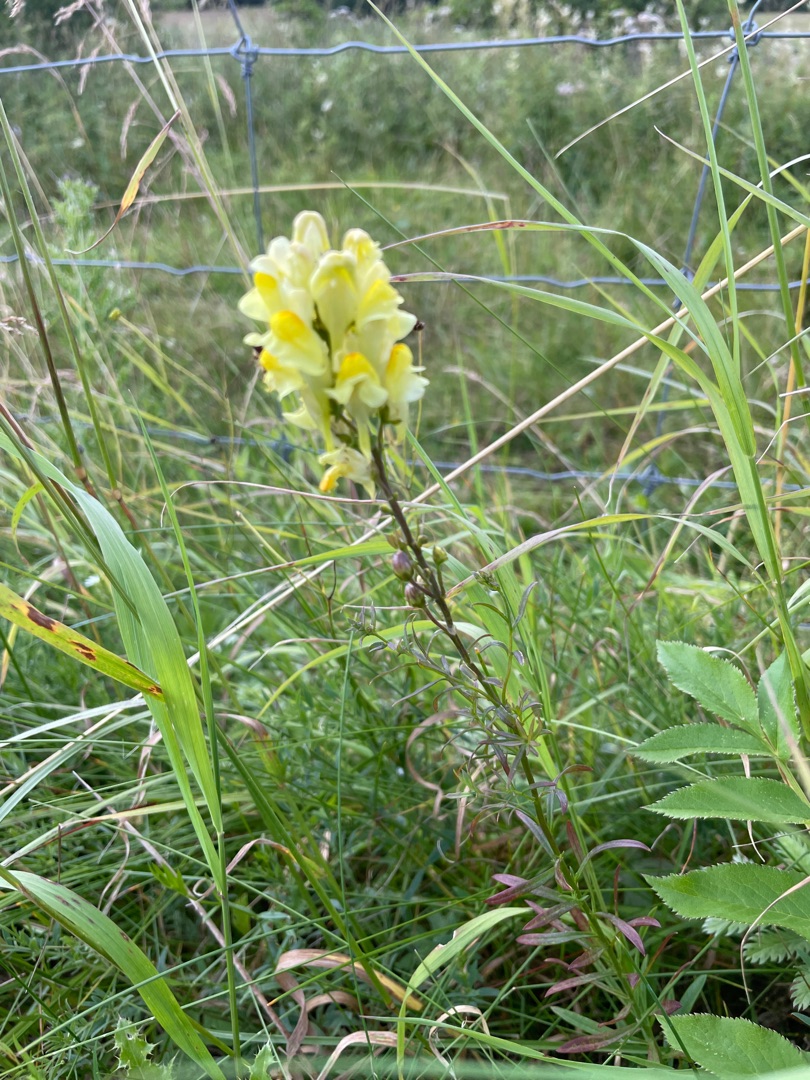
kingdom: Plantae
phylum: Tracheophyta
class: Magnoliopsida
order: Lamiales
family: Plantaginaceae
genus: Linaria
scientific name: Linaria vulgaris
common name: Almindelig torskemund
